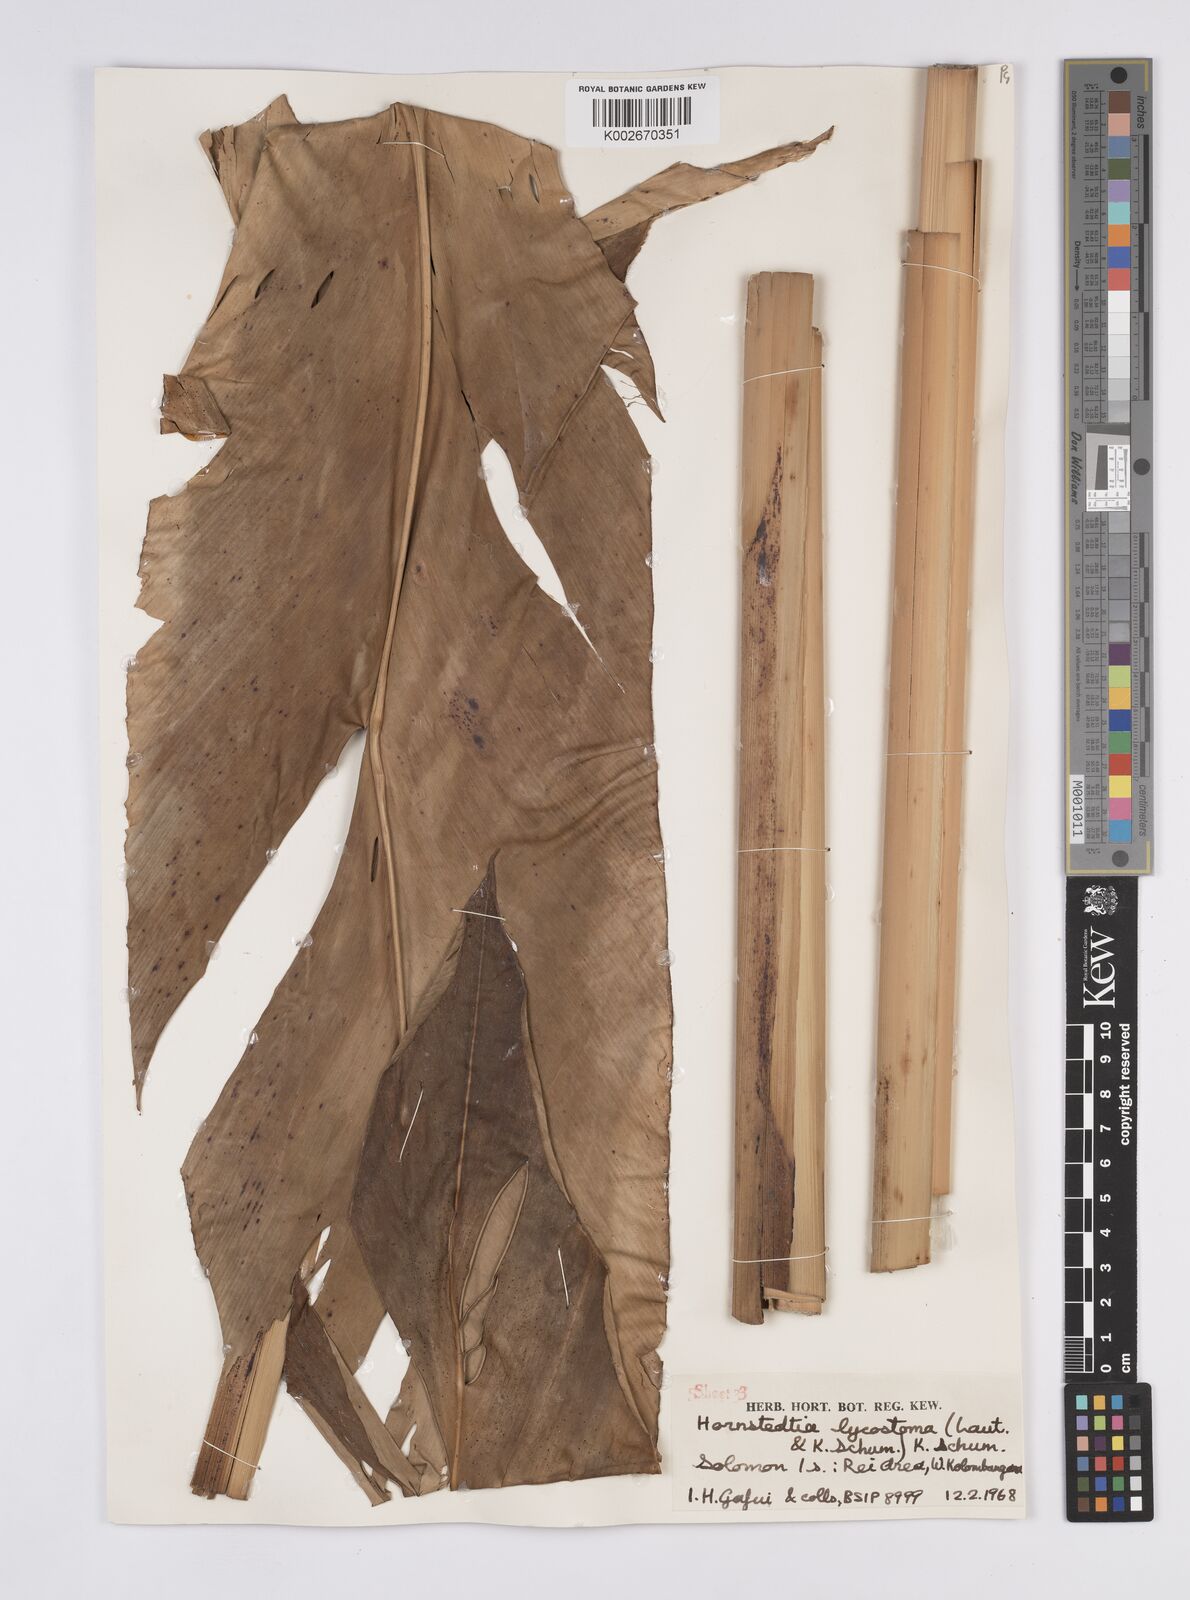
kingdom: Plantae
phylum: Tracheophyta
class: Liliopsida
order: Zingiberales
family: Zingiberaceae
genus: Hornstedtia
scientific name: Hornstedtia scottiana
